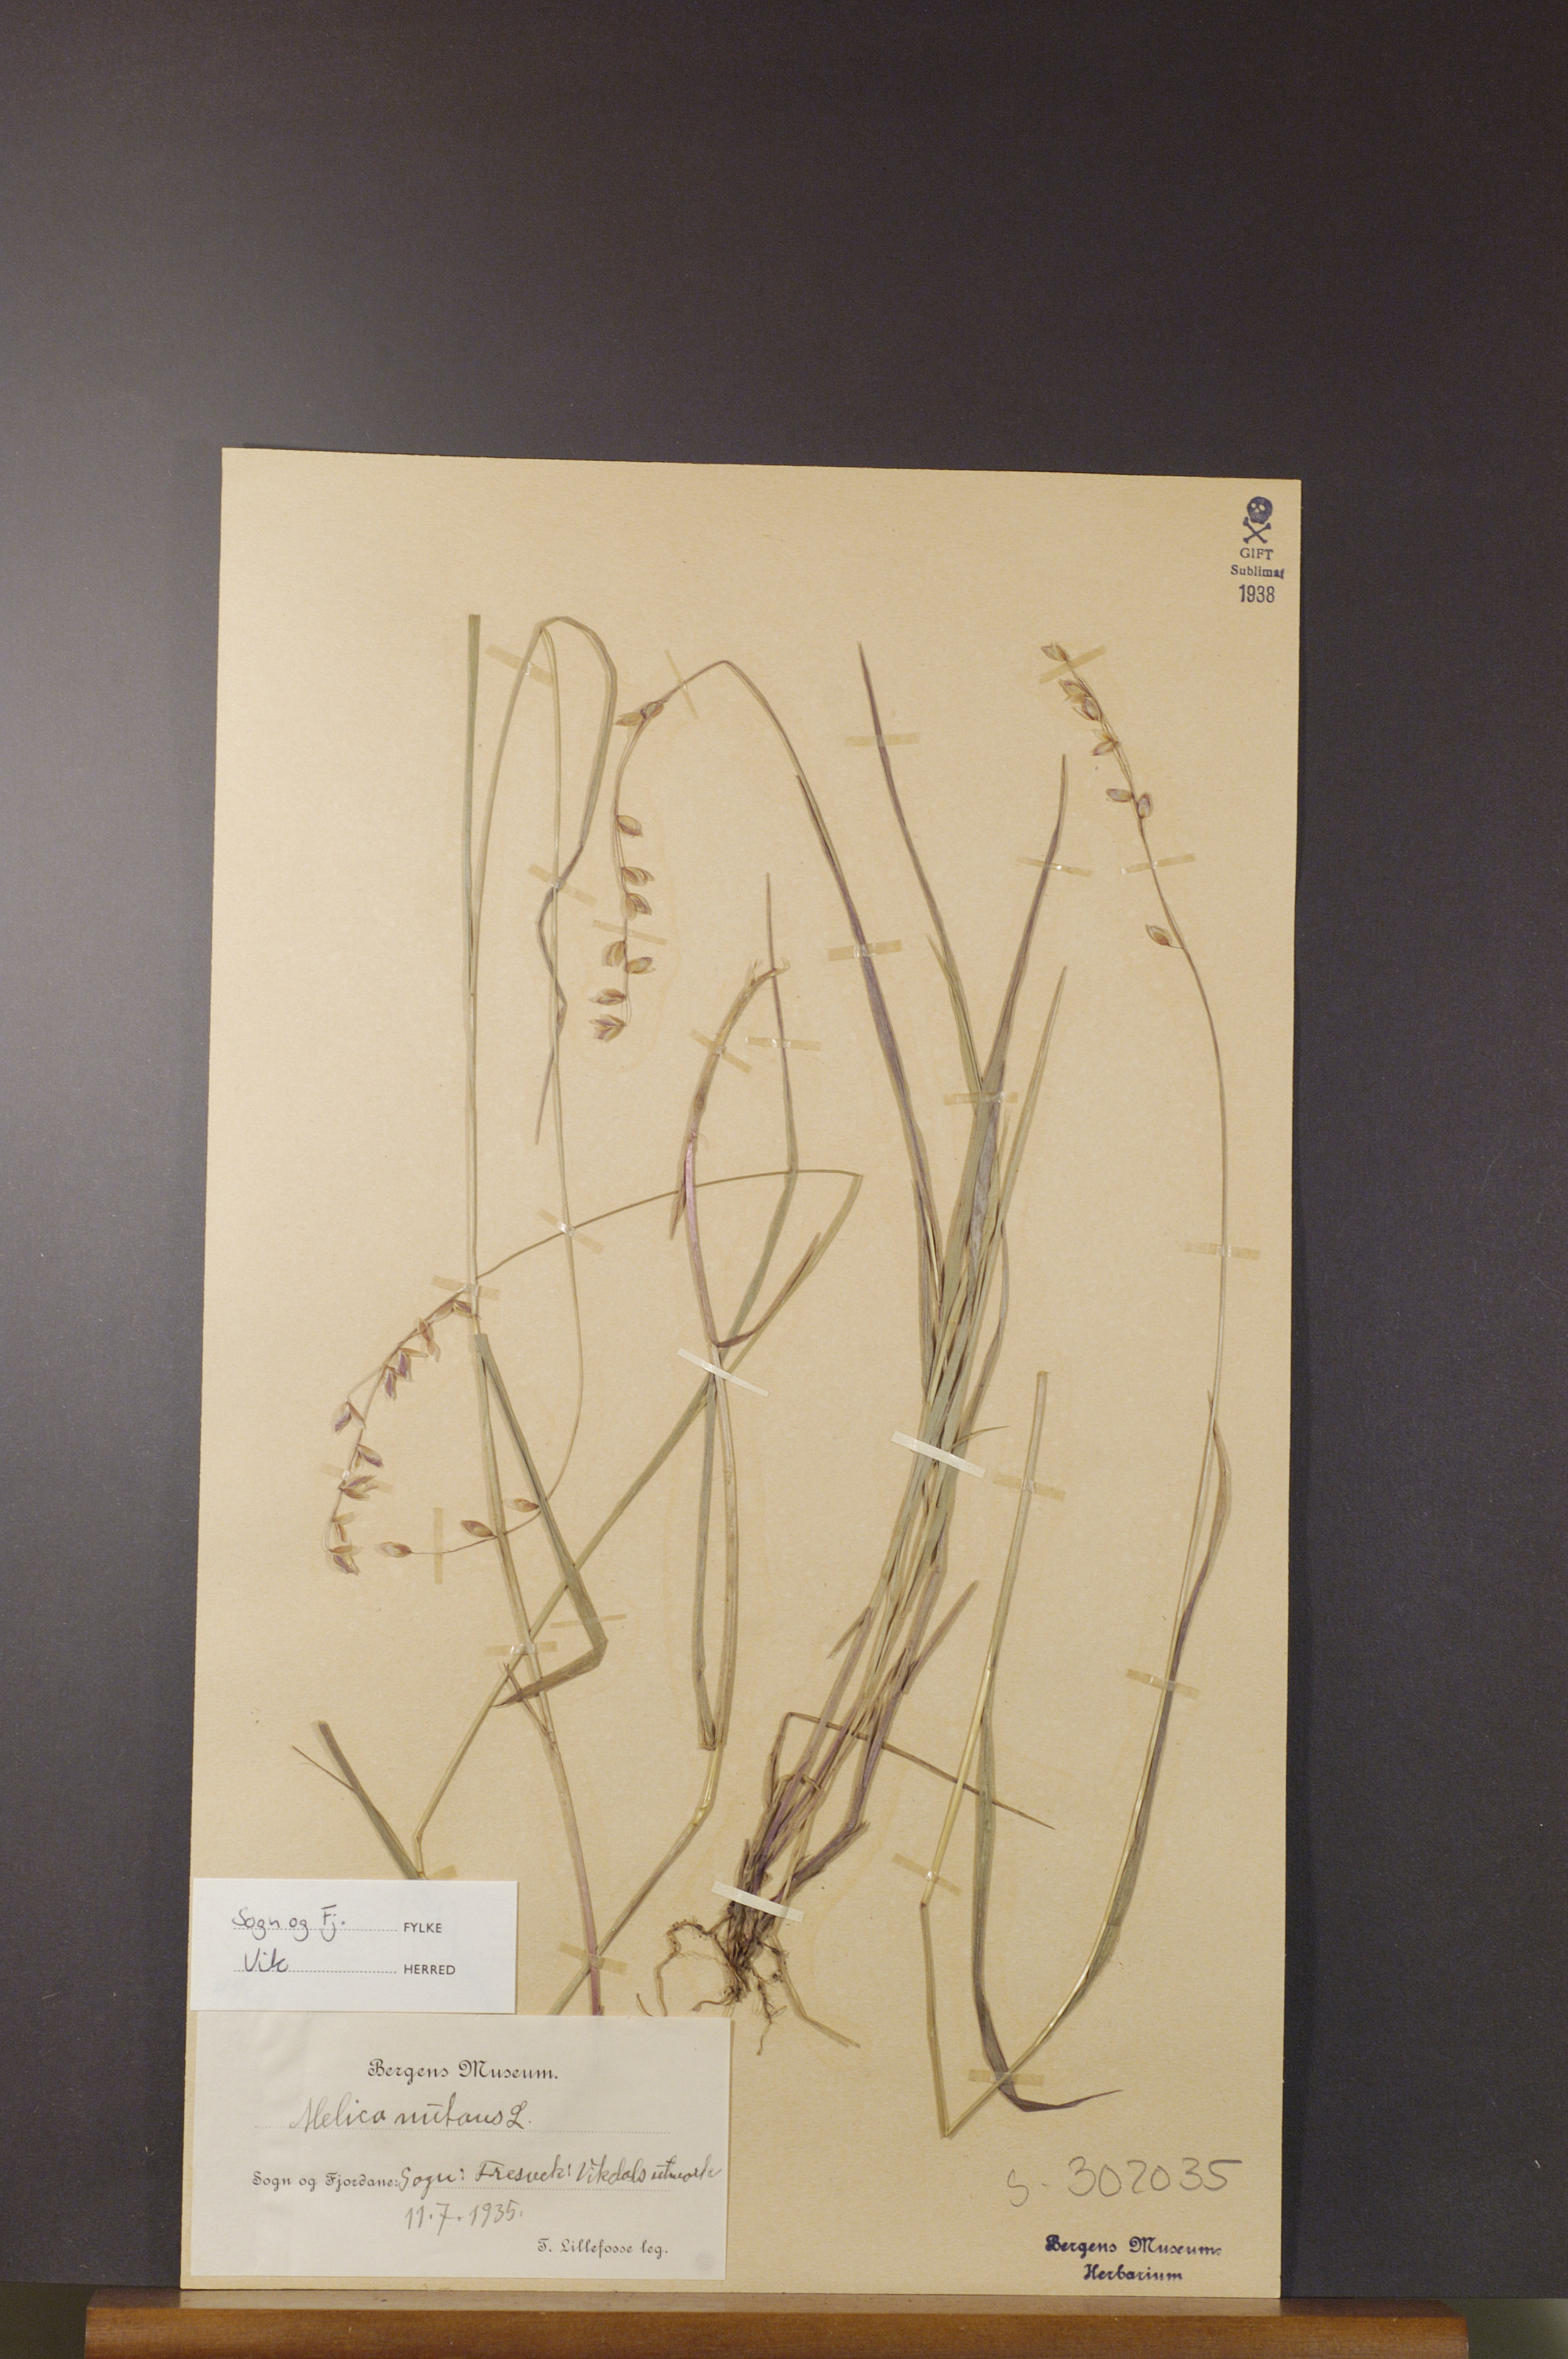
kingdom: Plantae
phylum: Tracheophyta
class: Liliopsida
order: Poales
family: Poaceae
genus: Melica
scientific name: Melica nutans
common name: Mountain melick
